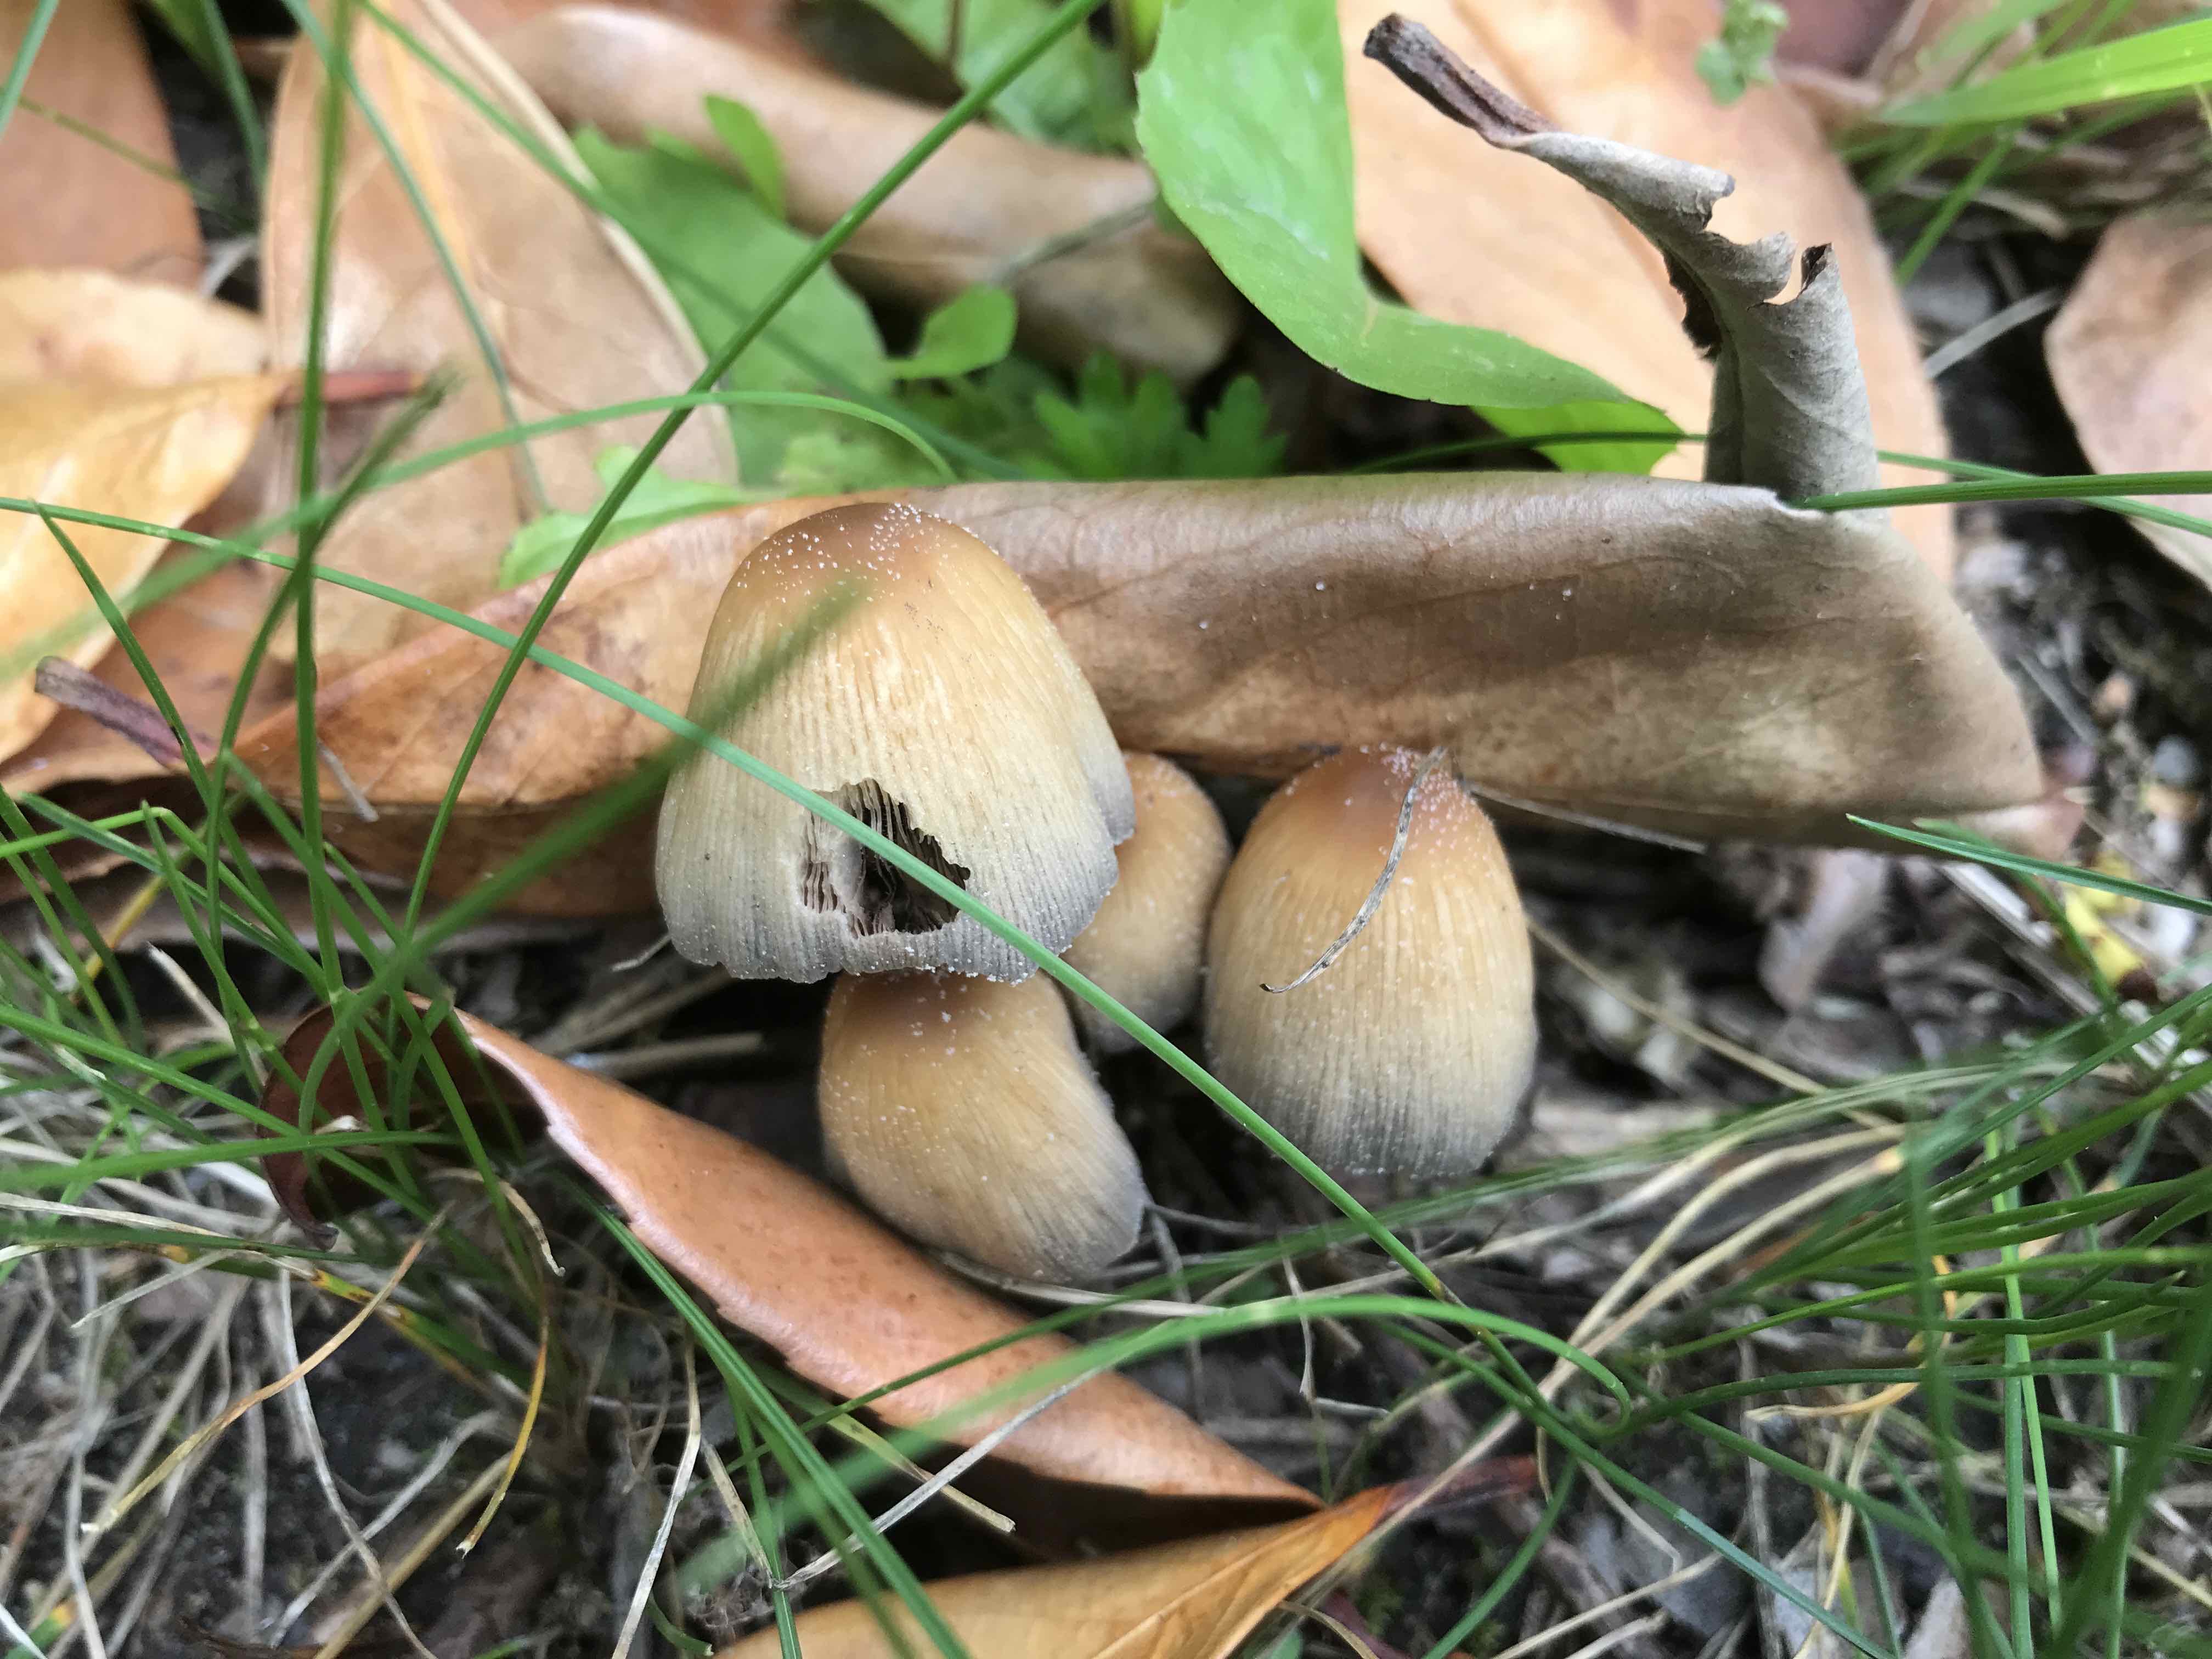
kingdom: Fungi
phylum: Basidiomycota
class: Agaricomycetes
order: Agaricales
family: Psathyrellaceae
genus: Coprinellus
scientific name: Coprinellus micaceus
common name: glimmer-blækhat
